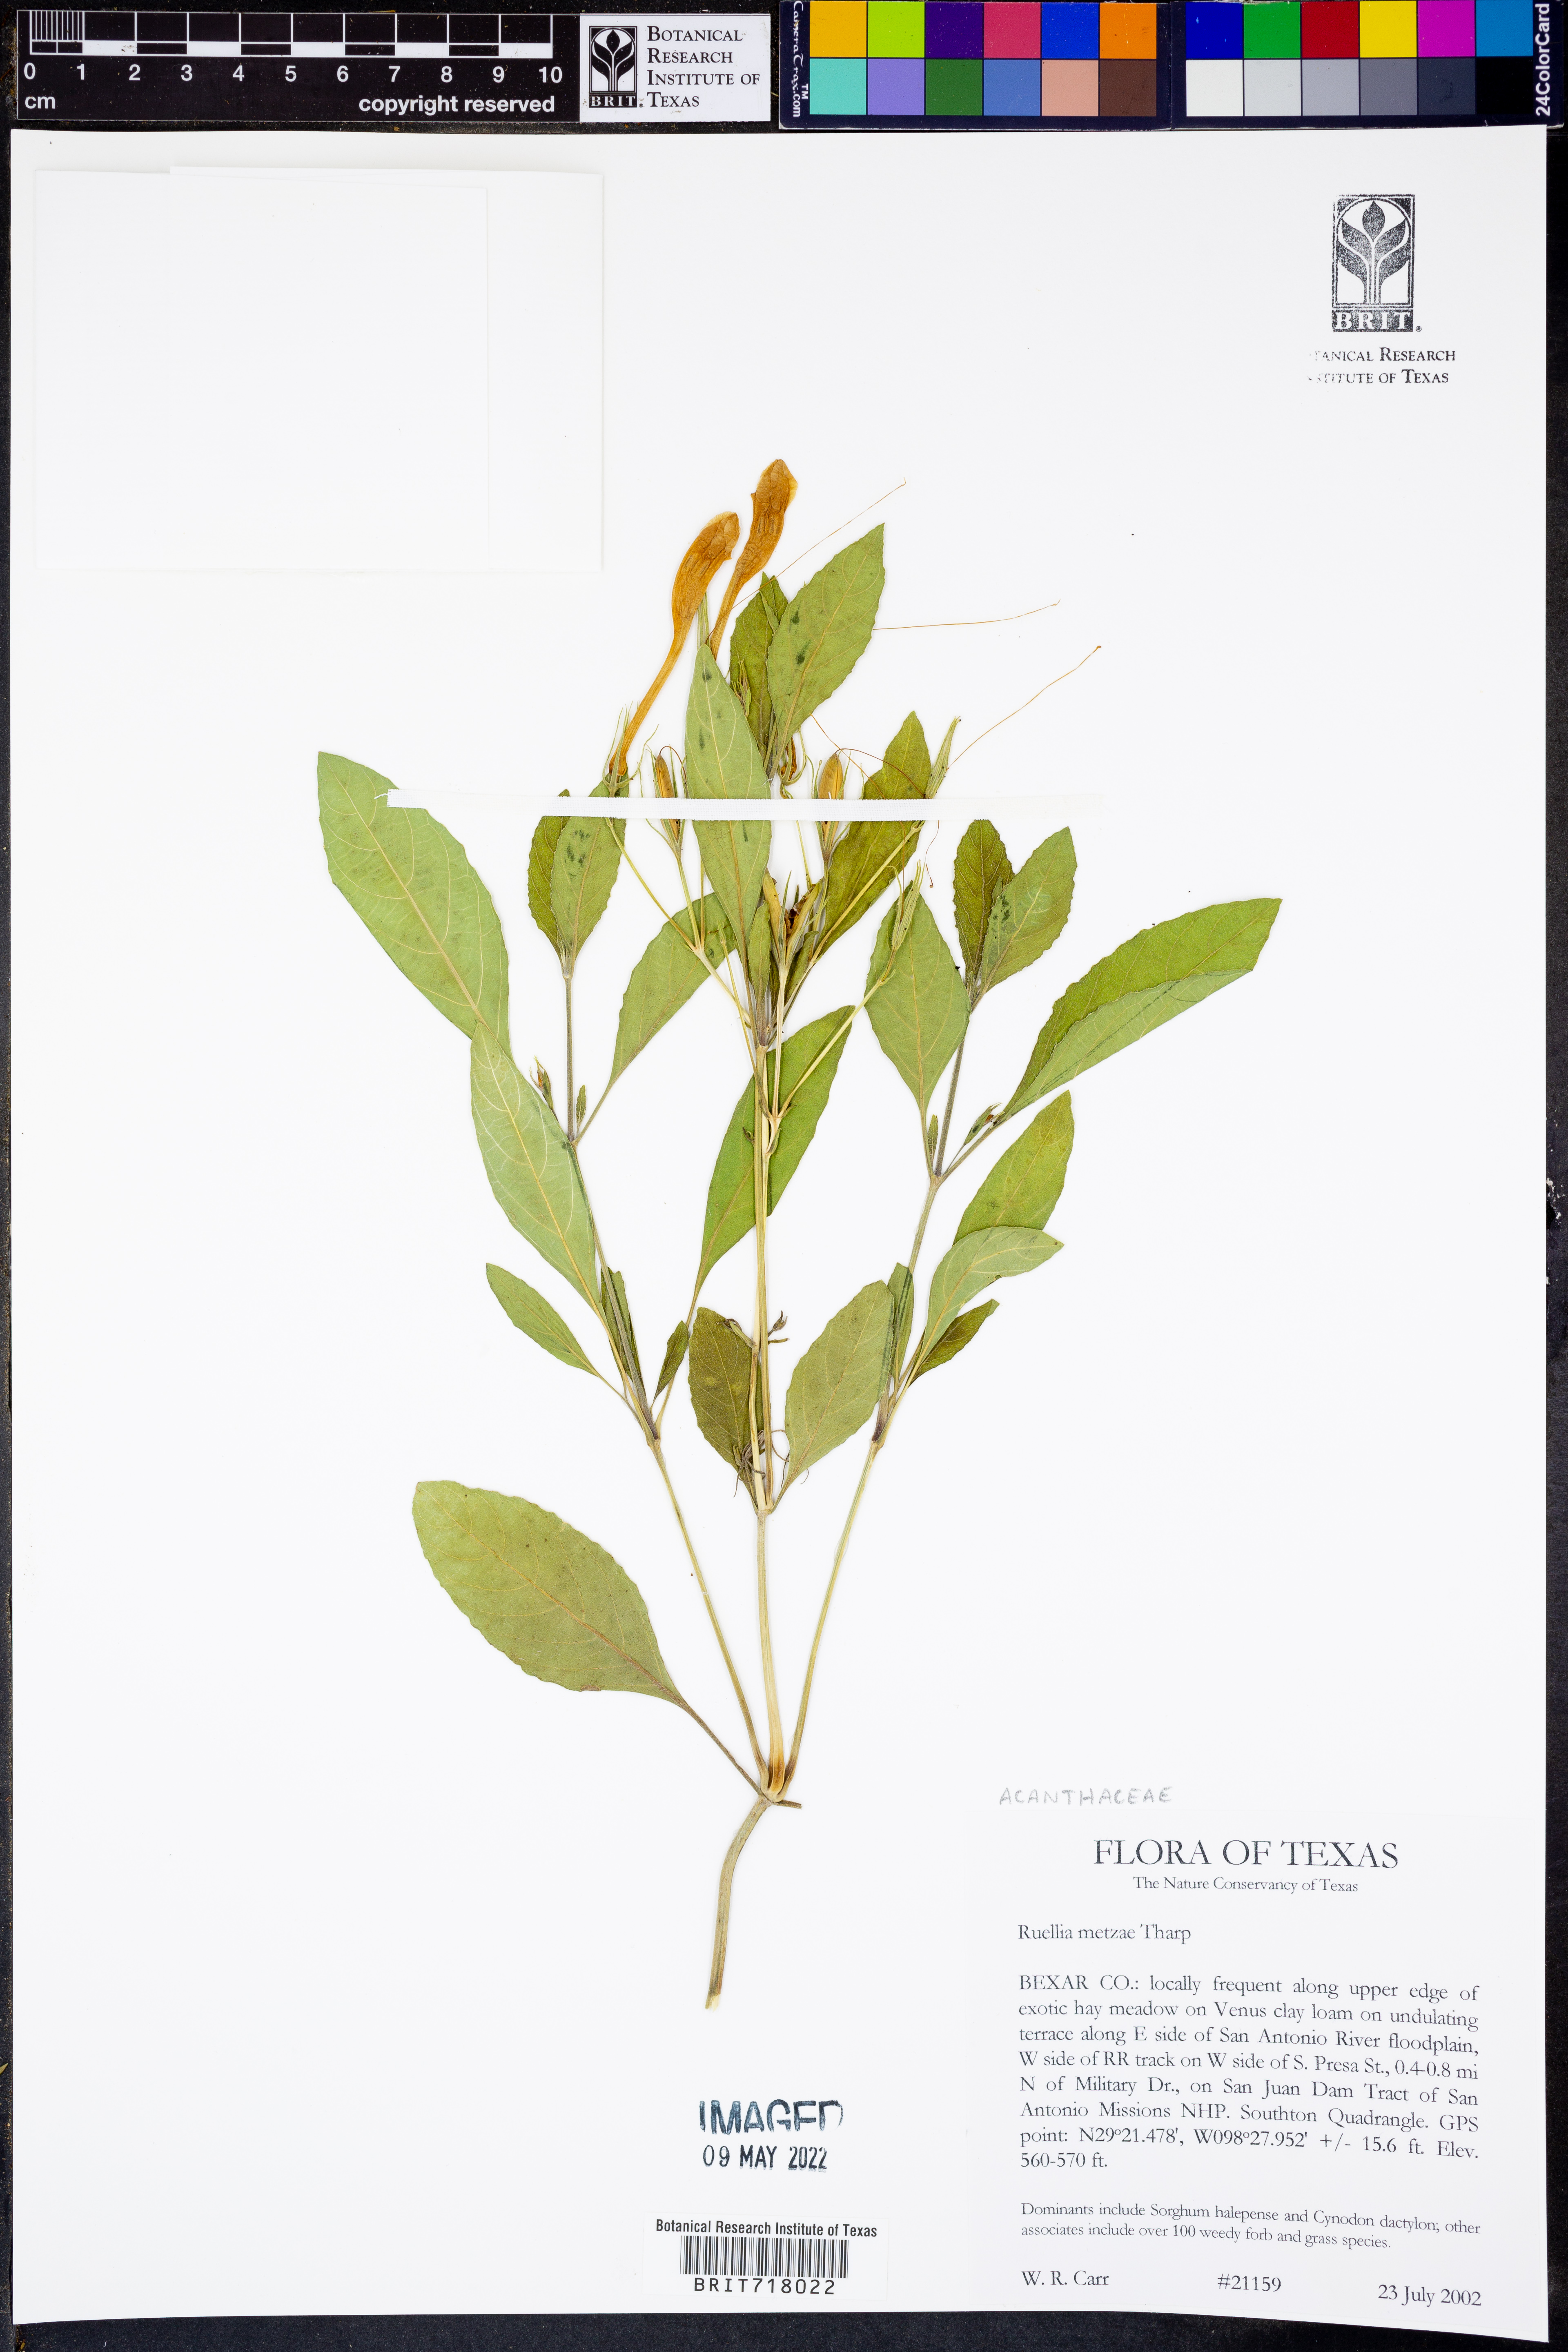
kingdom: Plantae
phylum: Tracheophyta
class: Magnoliopsida
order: Lamiales
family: Acanthaceae
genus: Ruellia
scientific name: Ruellia metzae
